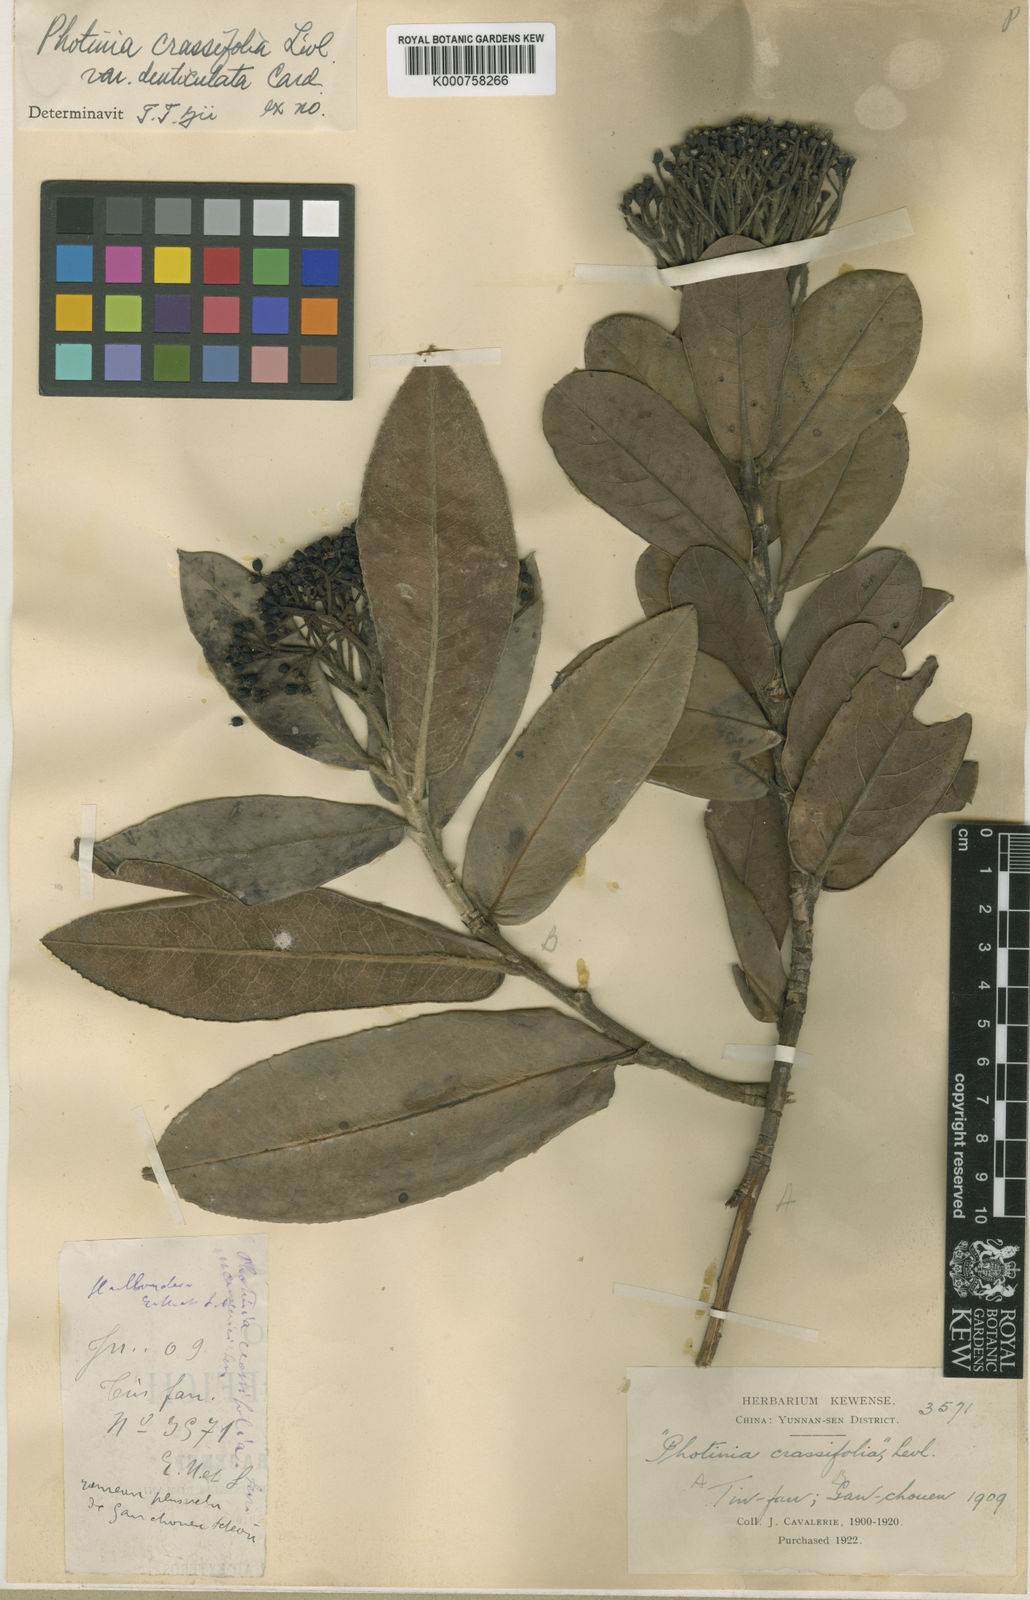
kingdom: Plantae
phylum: Tracheophyta
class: Magnoliopsida
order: Rosales
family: Rosaceae
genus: Photinia
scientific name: Photinia
